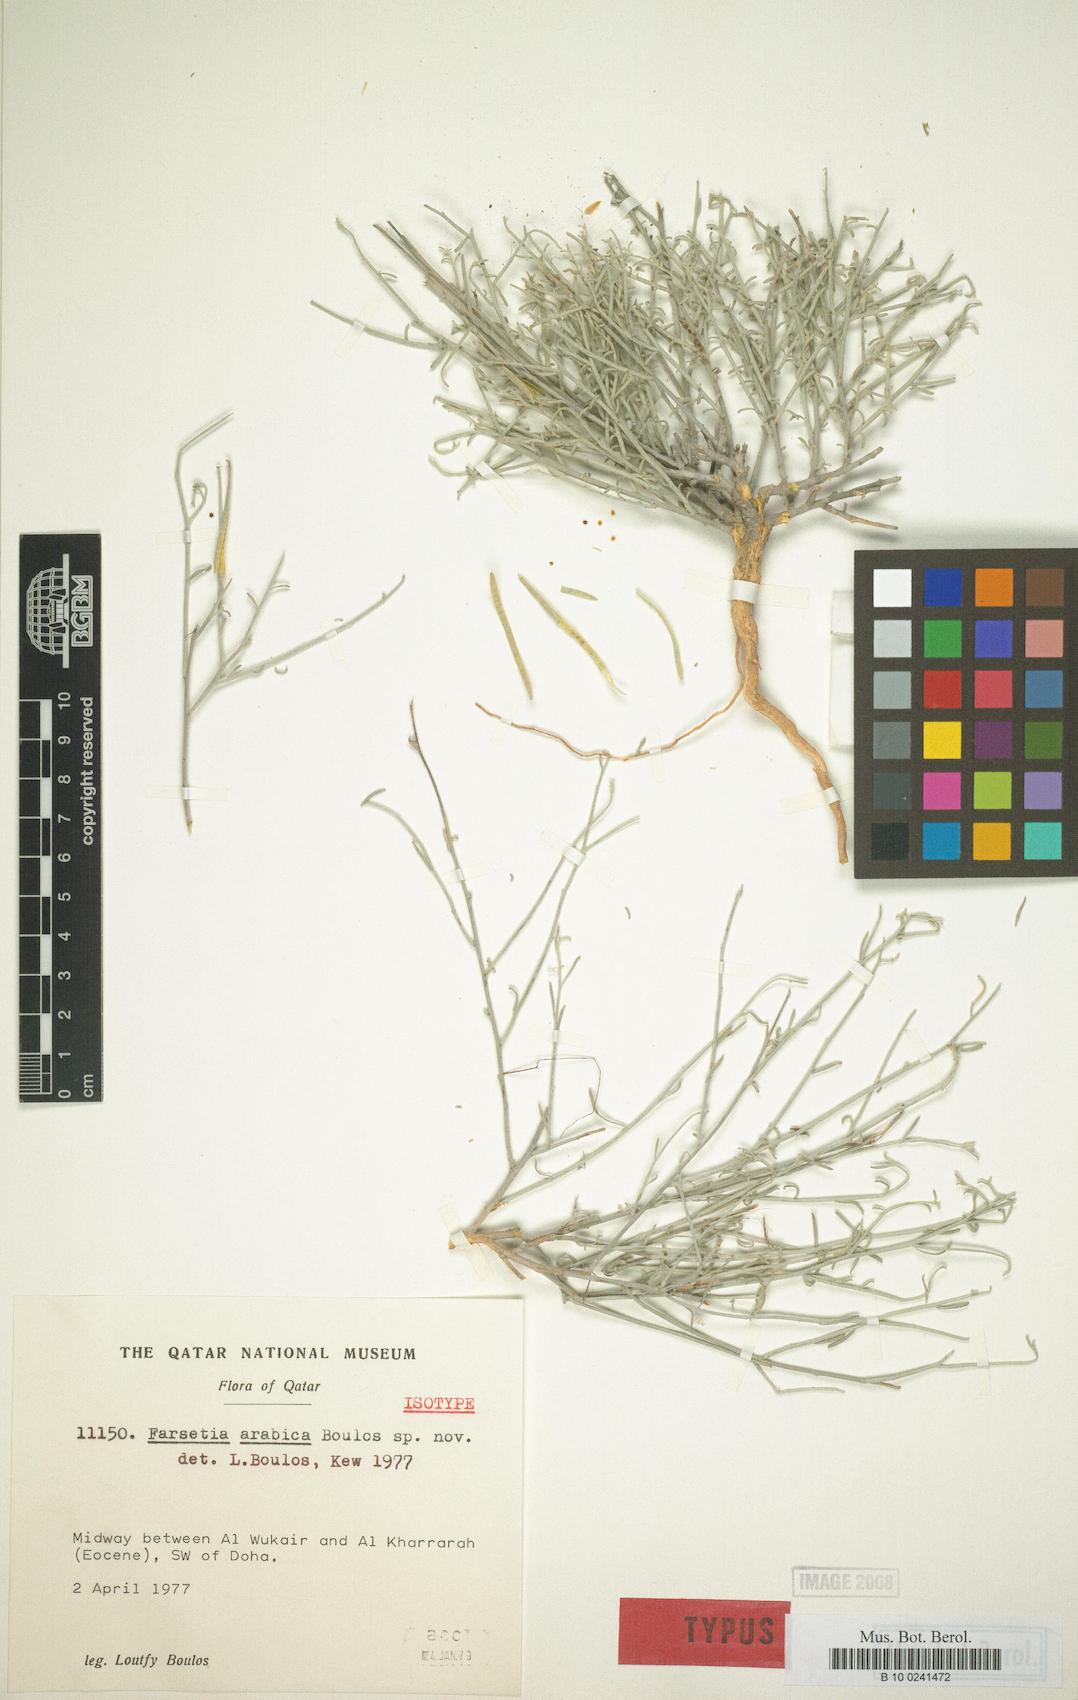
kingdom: Plantae
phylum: Tracheophyta
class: Magnoliopsida
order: Brassicales
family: Brassicaceae
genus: Farsetia
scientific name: Farsetia heliophila
